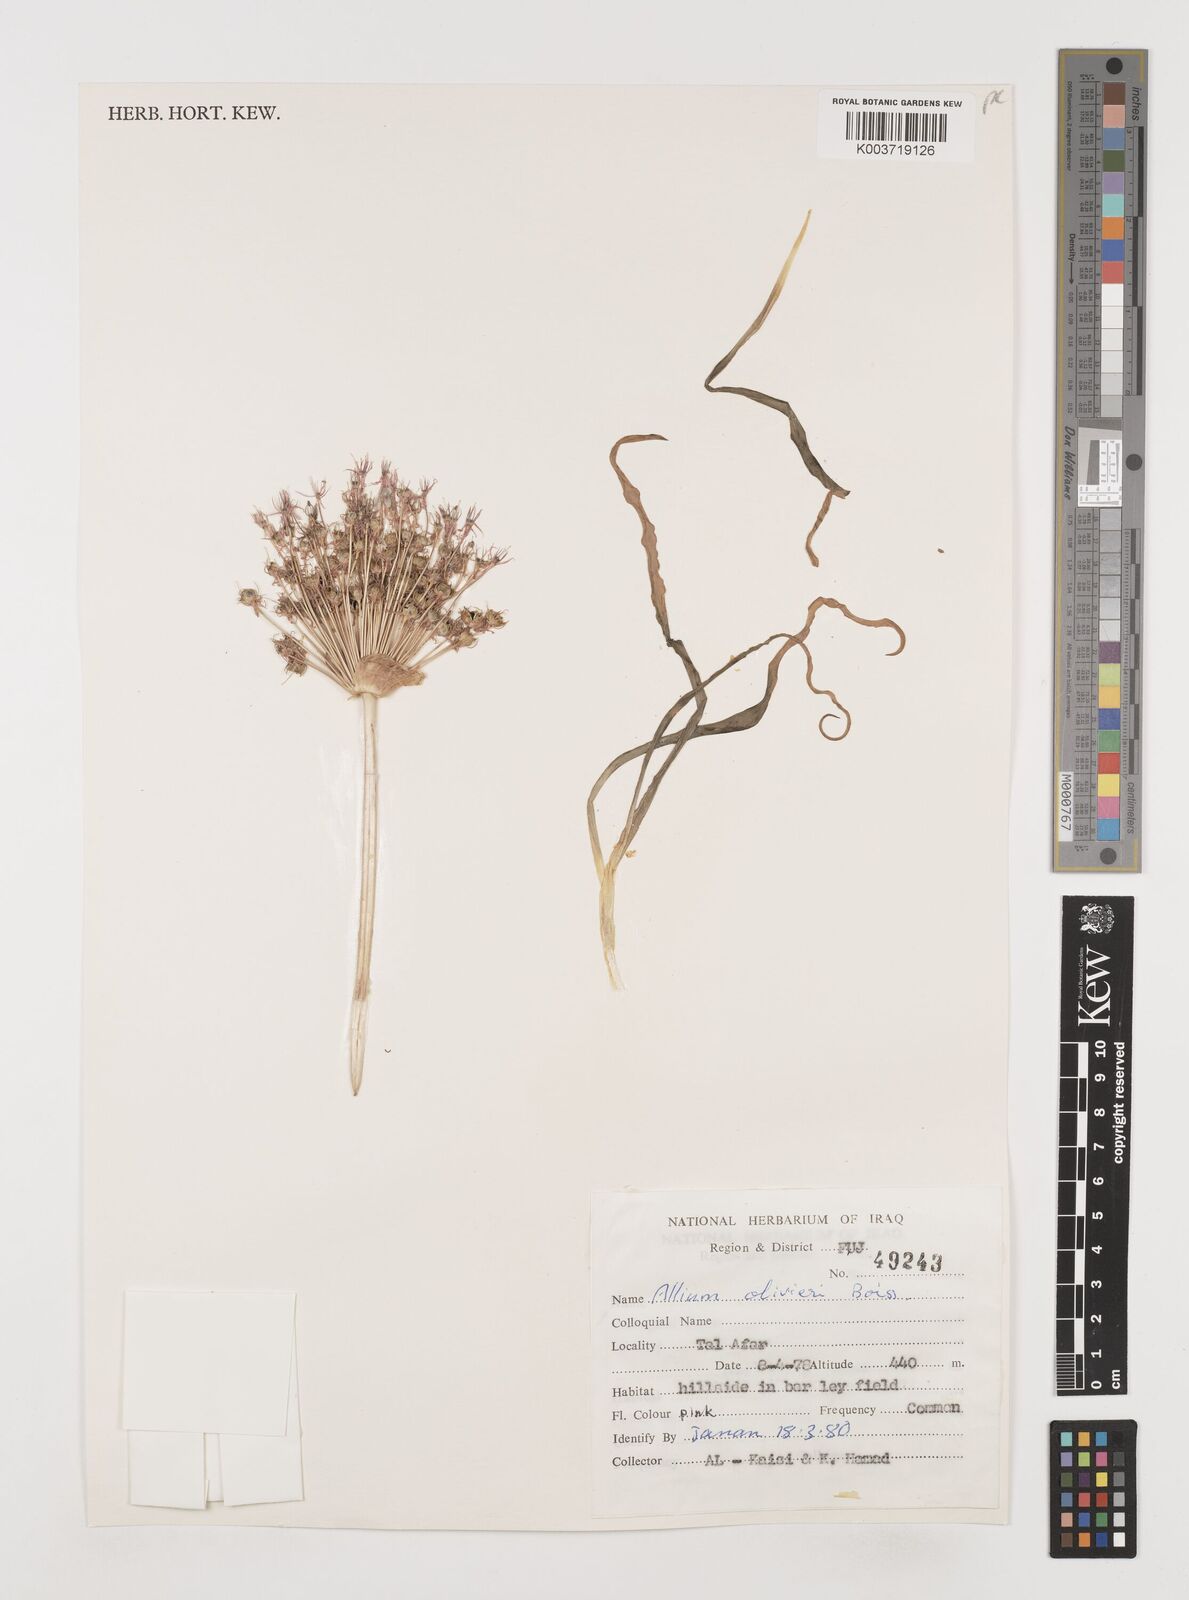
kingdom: Plantae
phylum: Tracheophyta
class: Liliopsida
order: Asparagales
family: Amaryllidaceae
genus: Allium
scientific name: Allium olivieri
